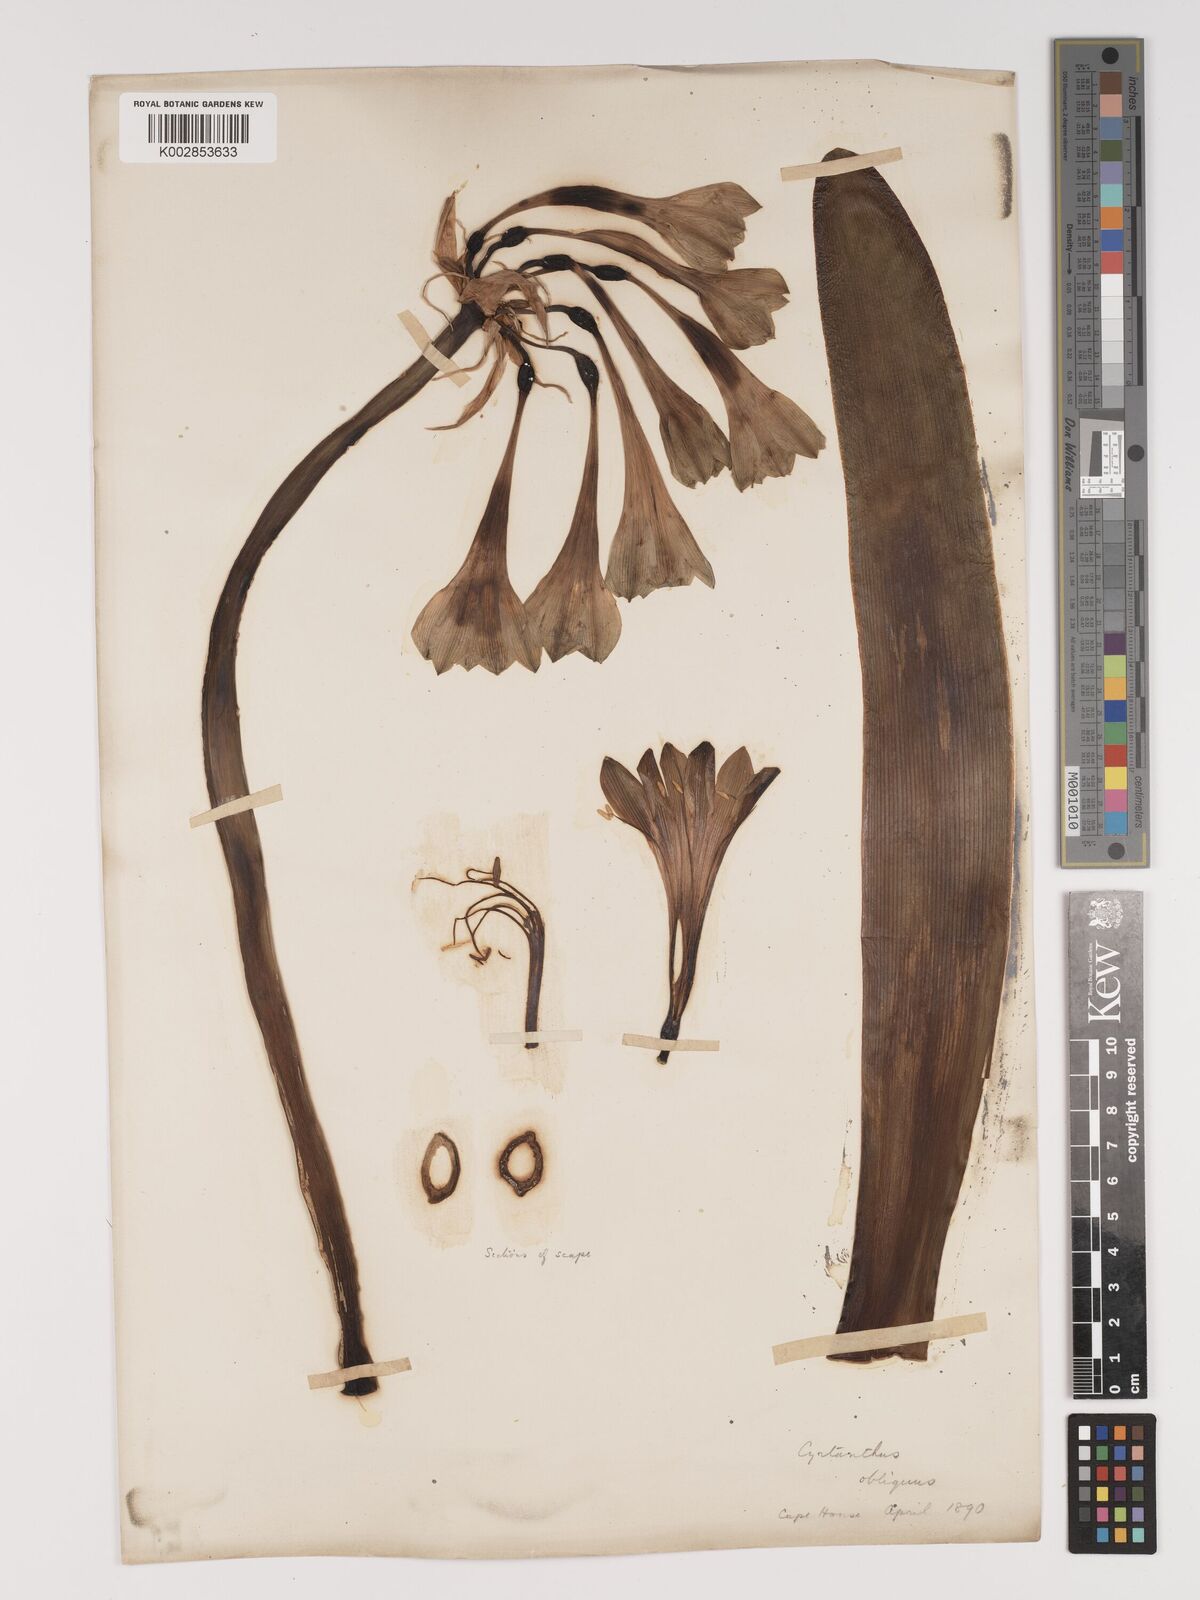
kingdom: Plantae
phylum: Tracheophyta
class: Liliopsida
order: Asparagales
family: Amaryllidaceae
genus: Cyrtanthus
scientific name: Cyrtanthus obliquus
